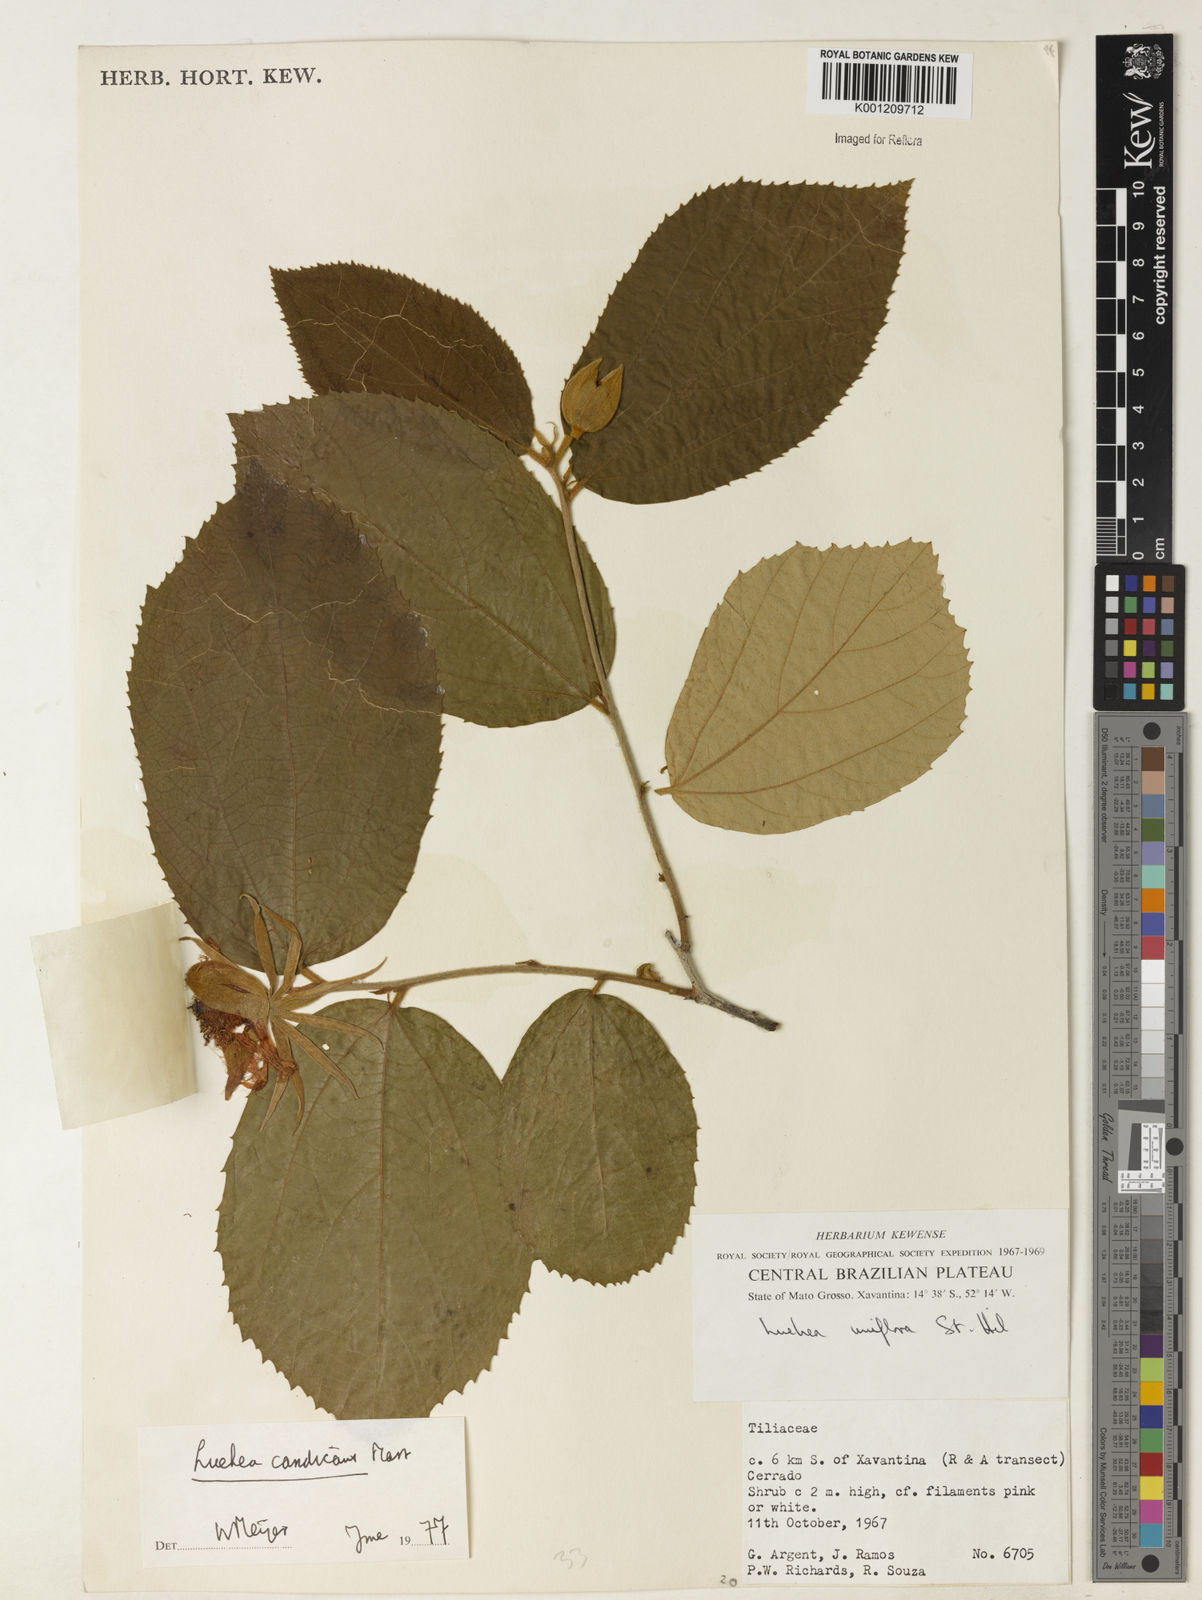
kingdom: Plantae
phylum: Tracheophyta
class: Magnoliopsida
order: Malvales
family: Malvaceae
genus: Luehea
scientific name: Luehea candicans
